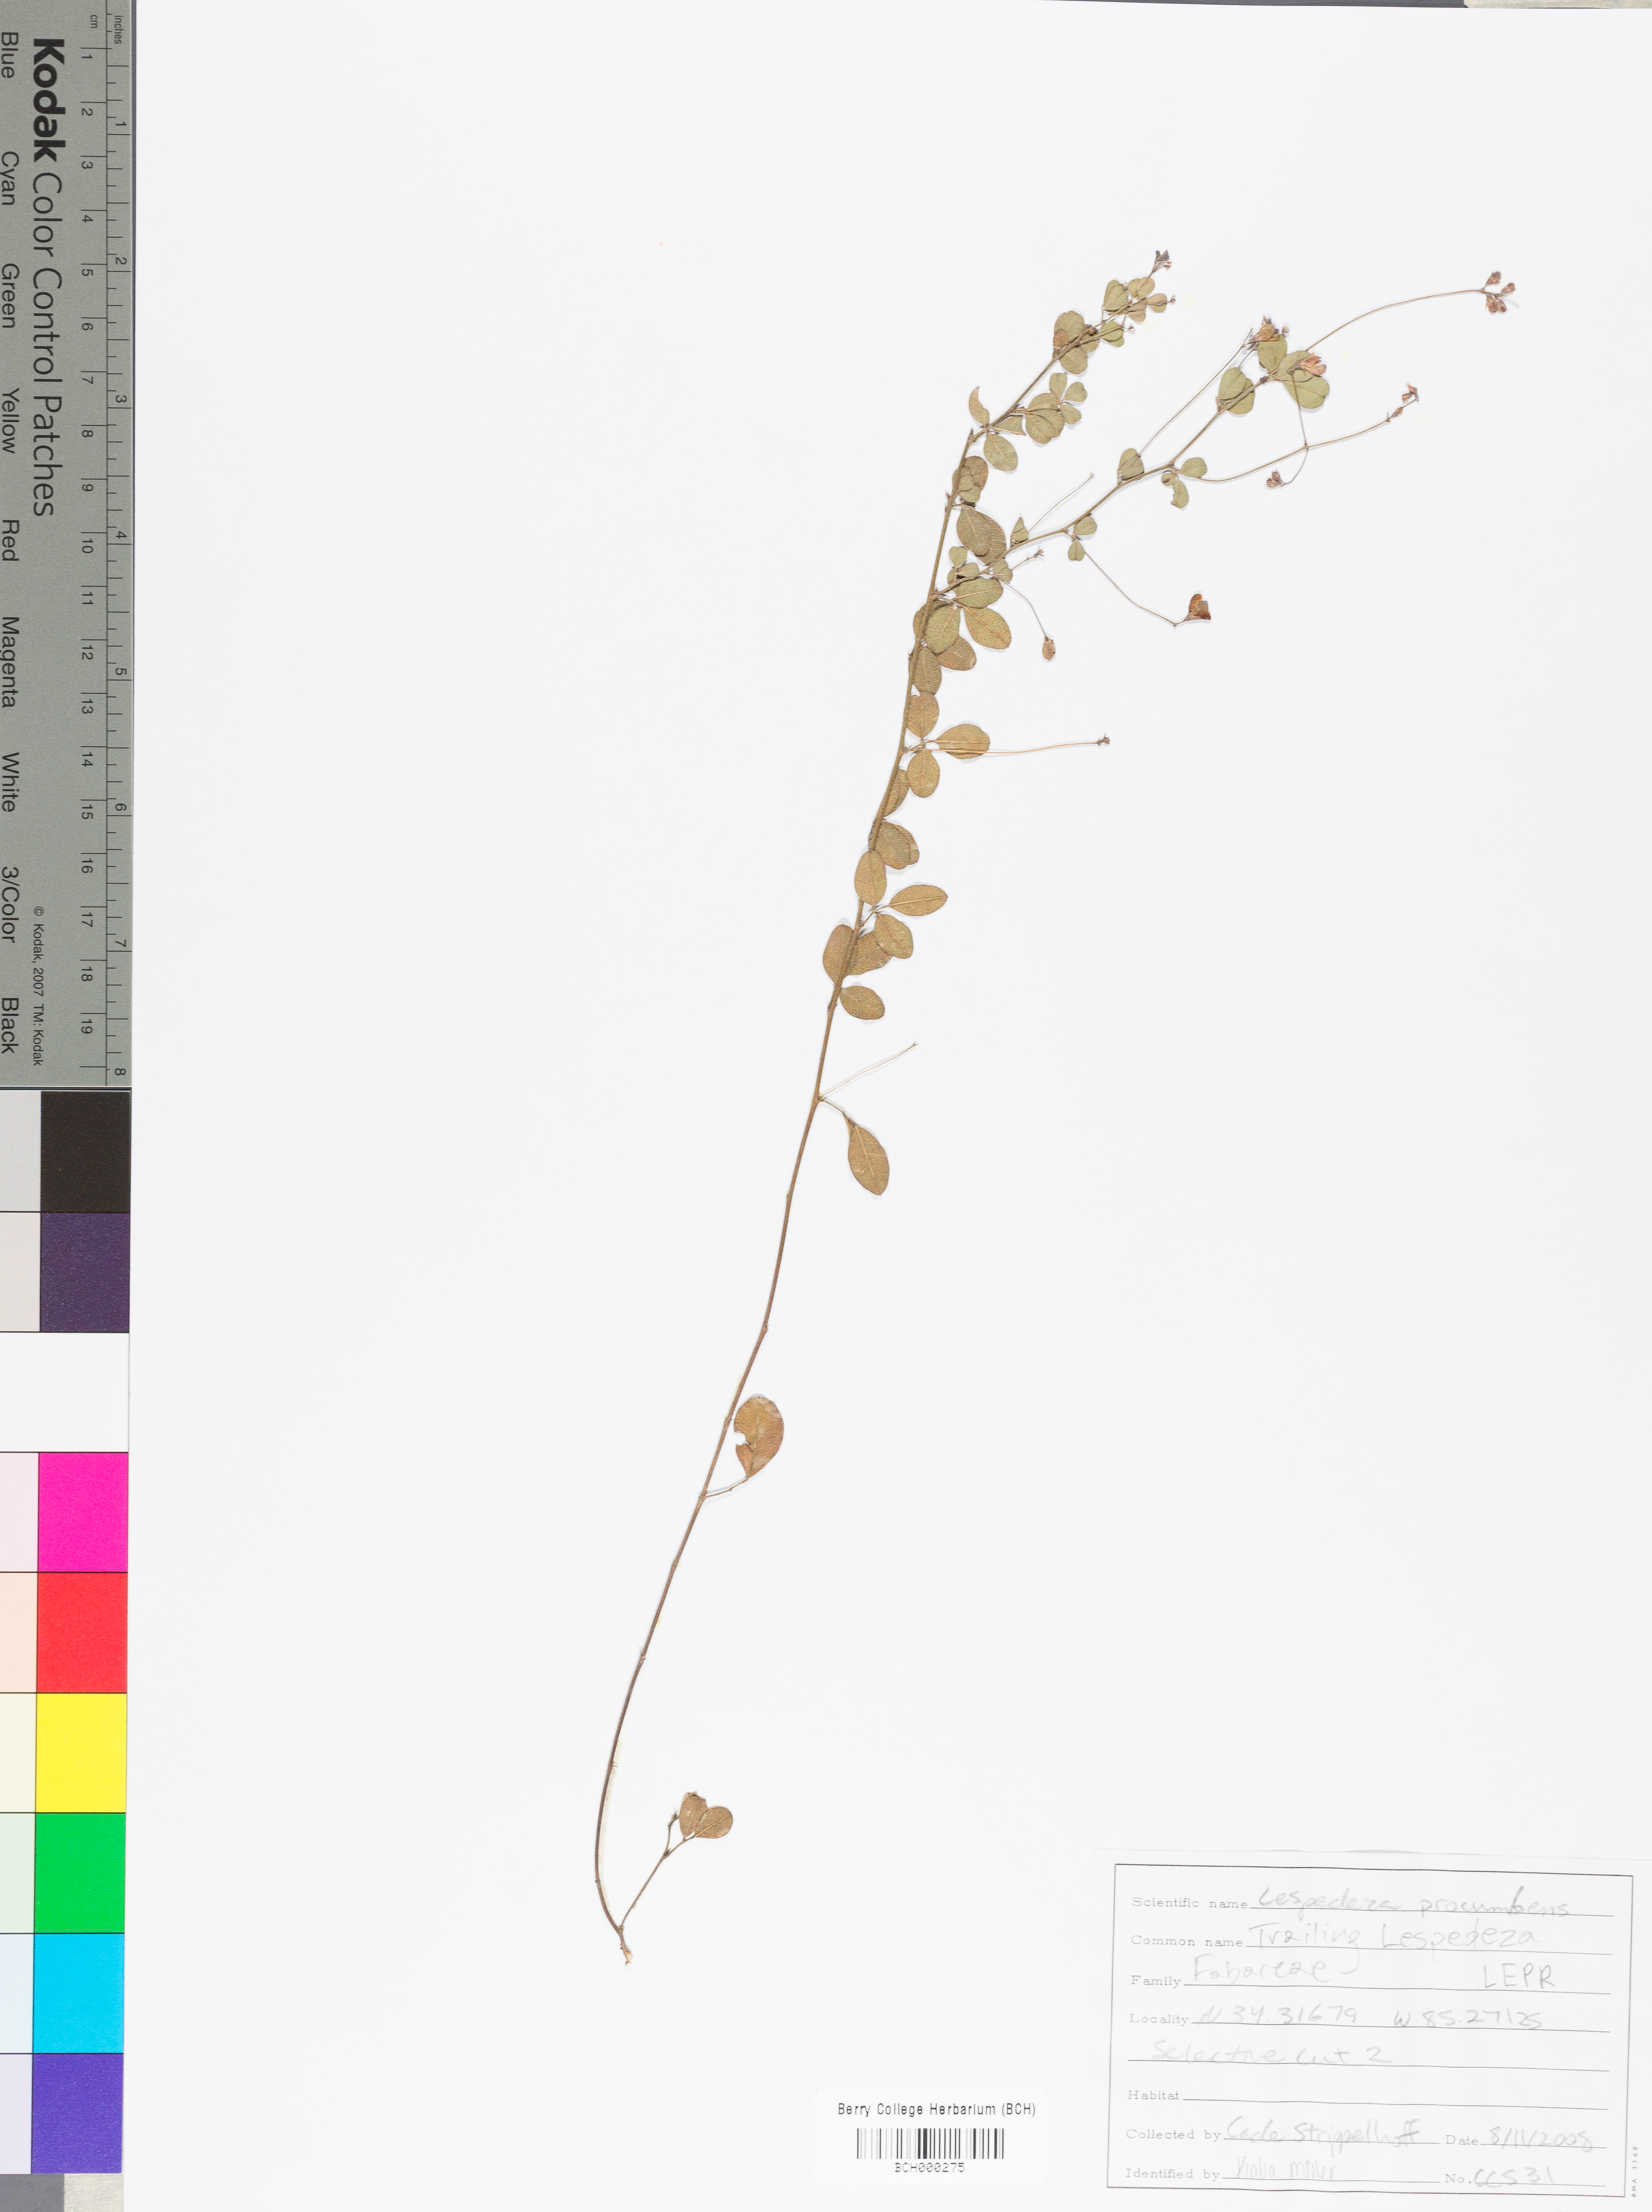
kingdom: Plantae
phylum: Tracheophyta
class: Magnoliopsida
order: Fabales
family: Fabaceae
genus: Lespedeza
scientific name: Lespedeza procumbens
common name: Downy trailing bush-clover
